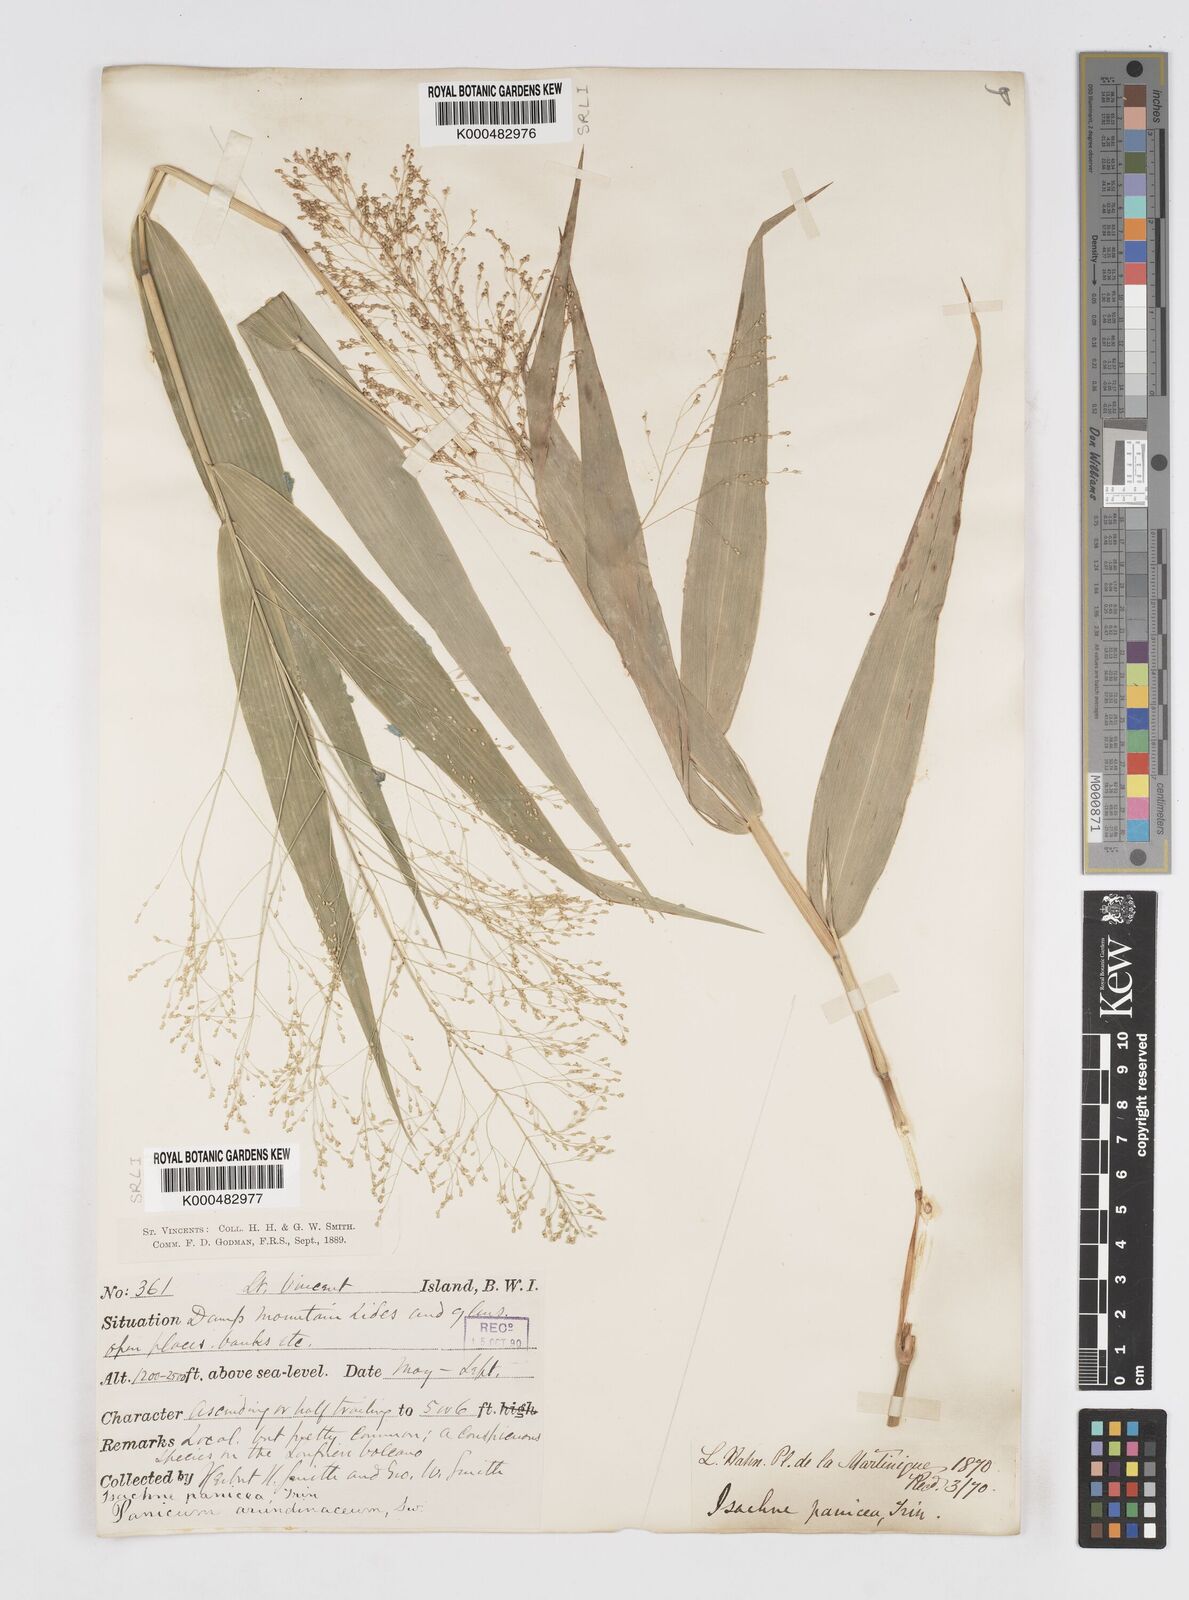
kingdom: Plantae
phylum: Tracheophyta
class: Liliopsida
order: Poales
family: Poaceae
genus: Isachne
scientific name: Isachne
